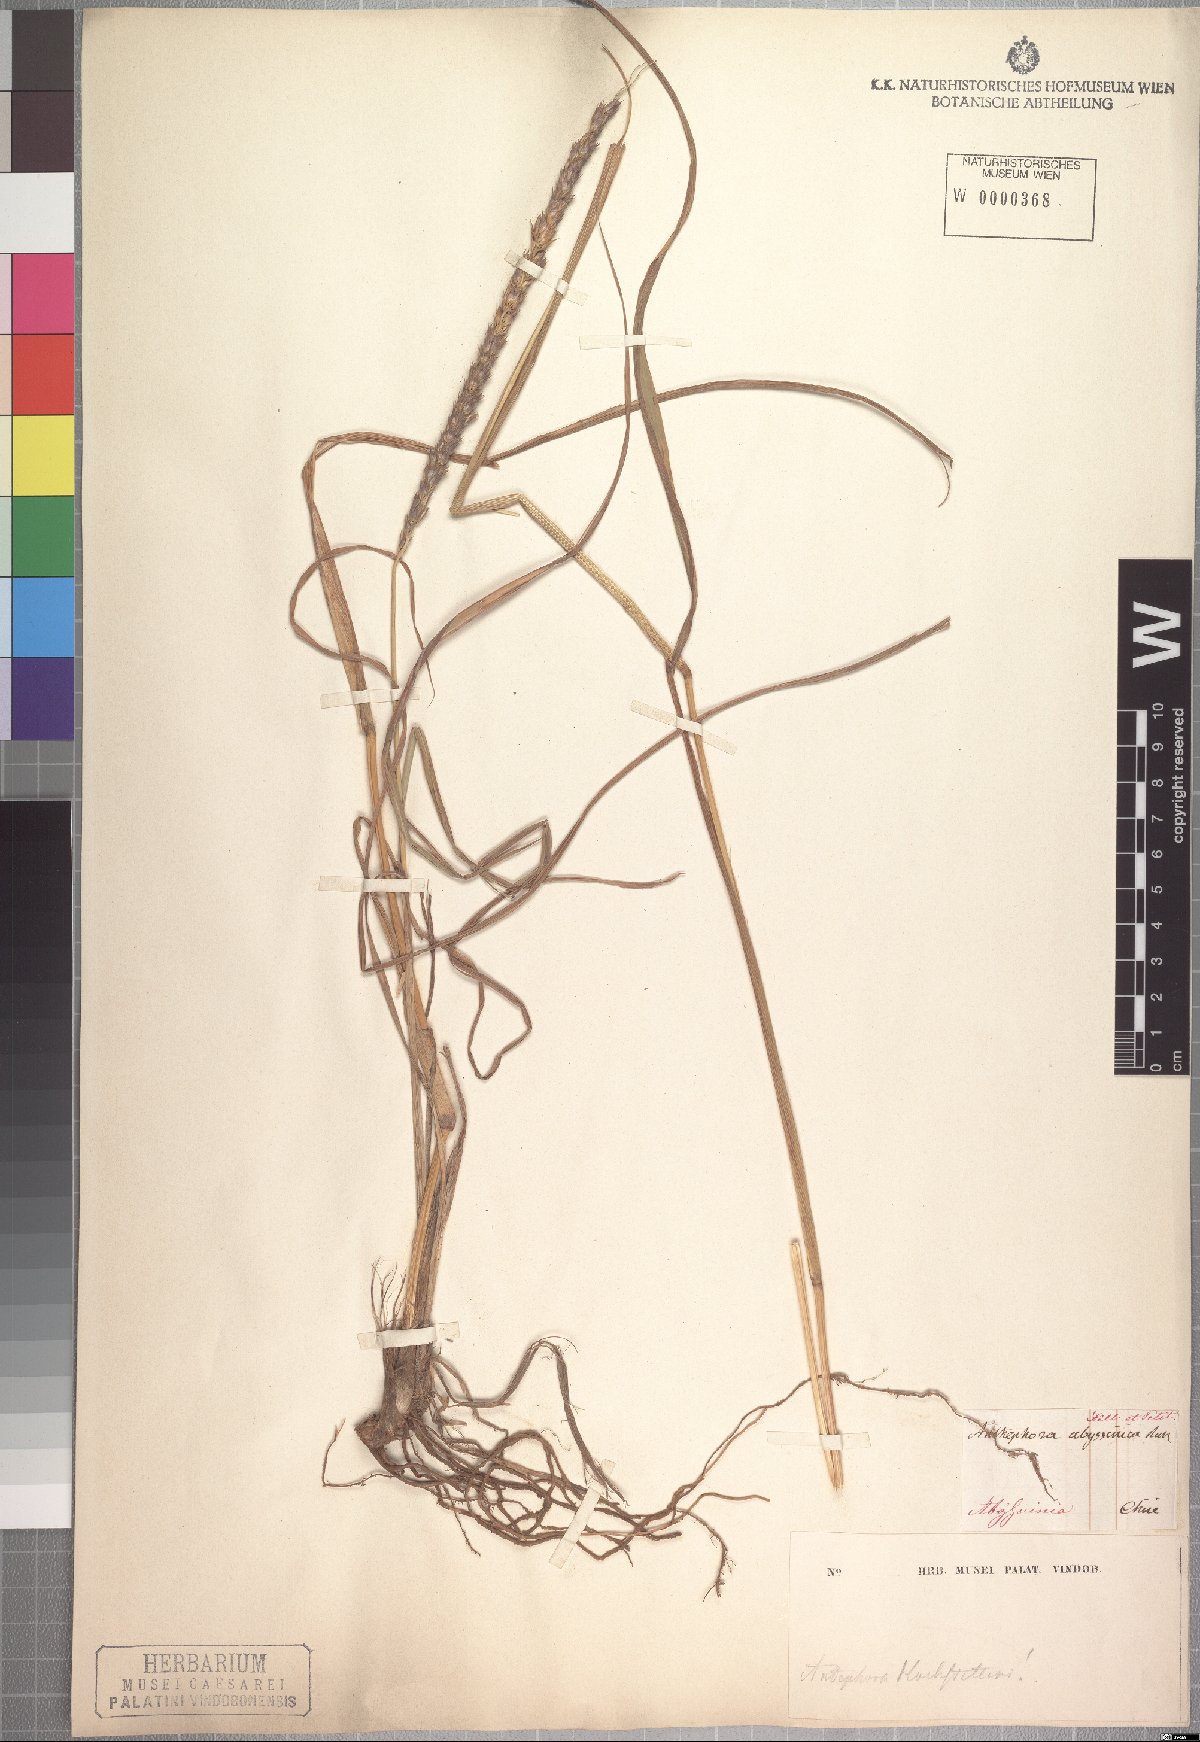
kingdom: Plantae
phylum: Tracheophyta
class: Liliopsida
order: Poales
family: Poaceae
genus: Anthephora
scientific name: Anthephora pubescens
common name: Wool grass
